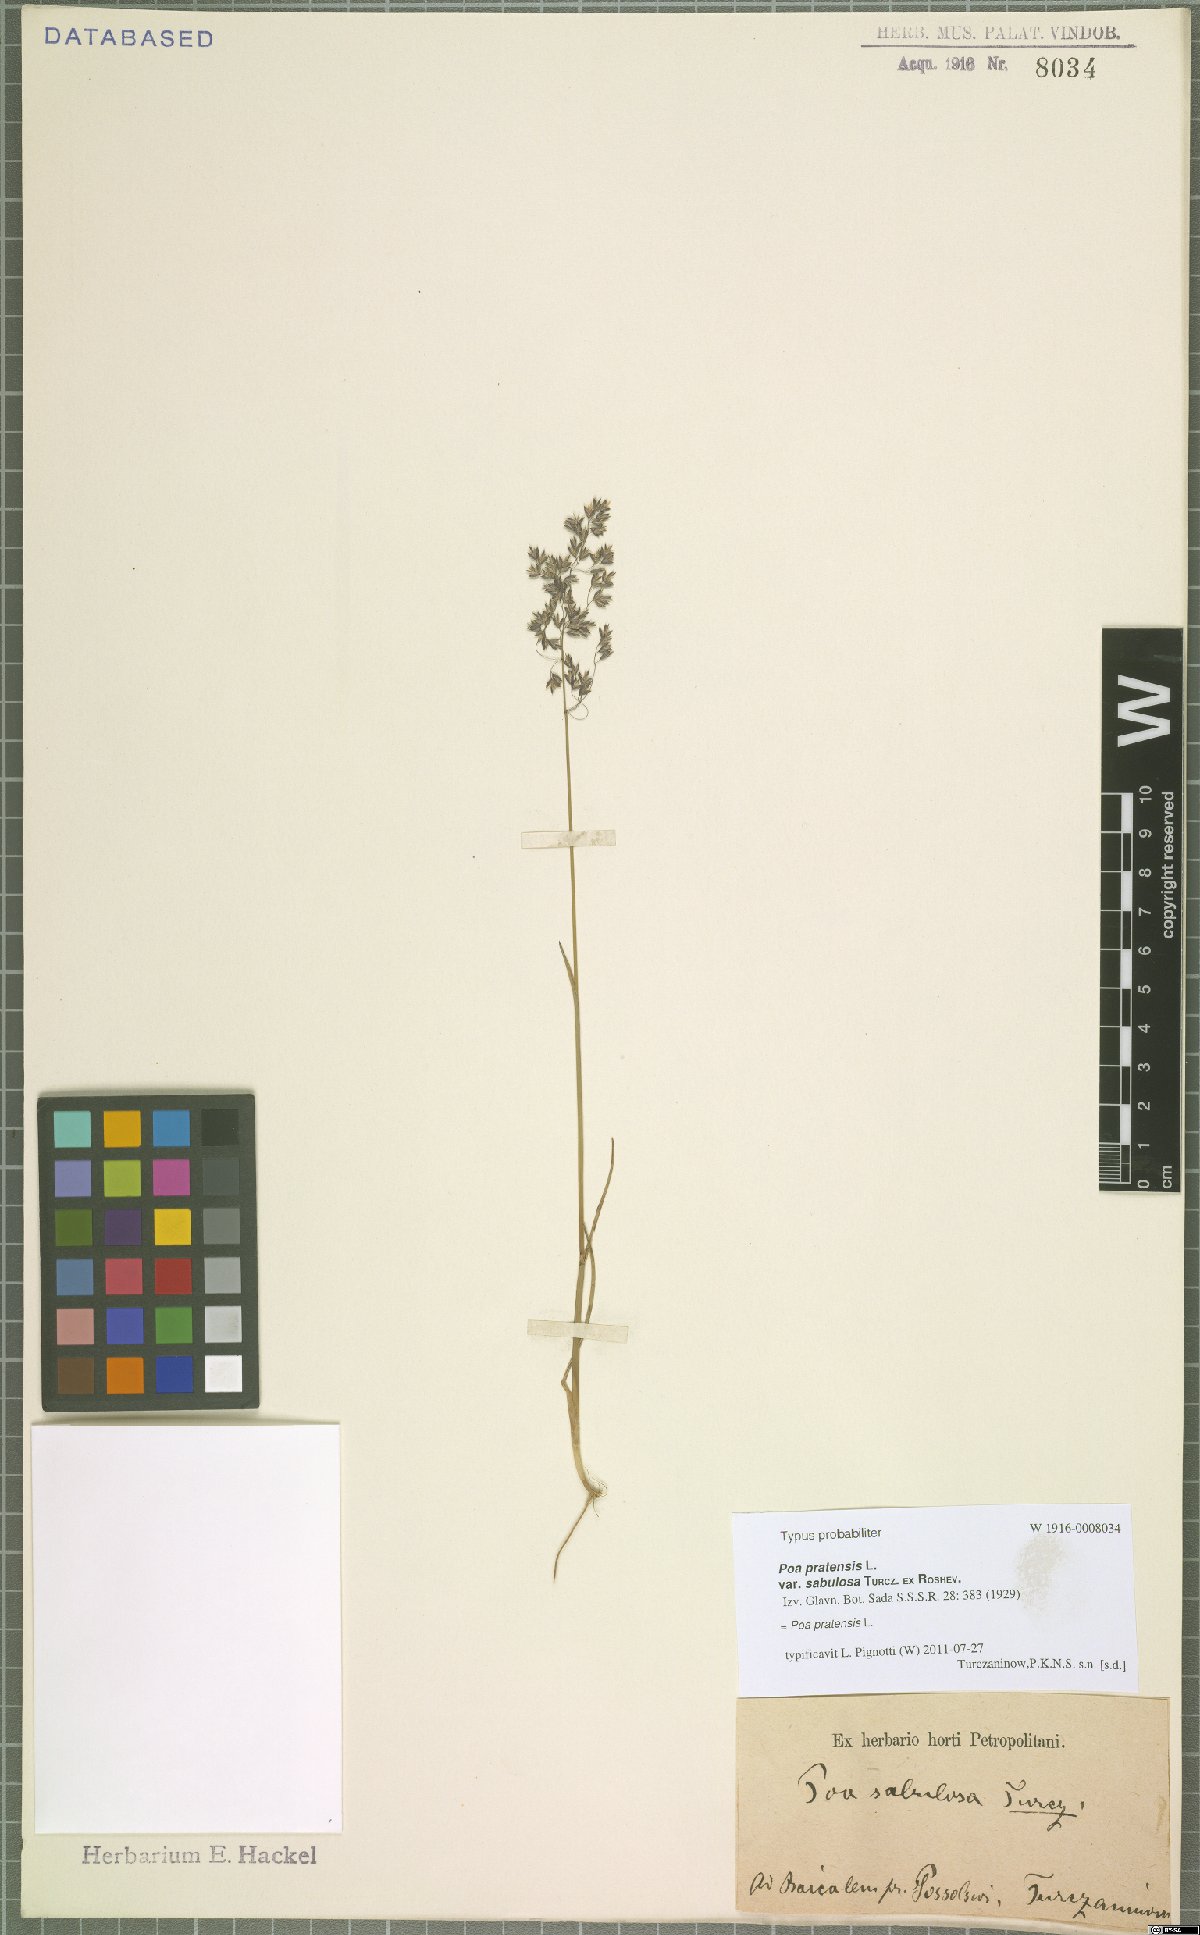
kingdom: Plantae
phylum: Tracheophyta
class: Liliopsida
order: Poales
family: Poaceae
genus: Poa
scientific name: Poa pratensis
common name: Kentucky bluegrass
